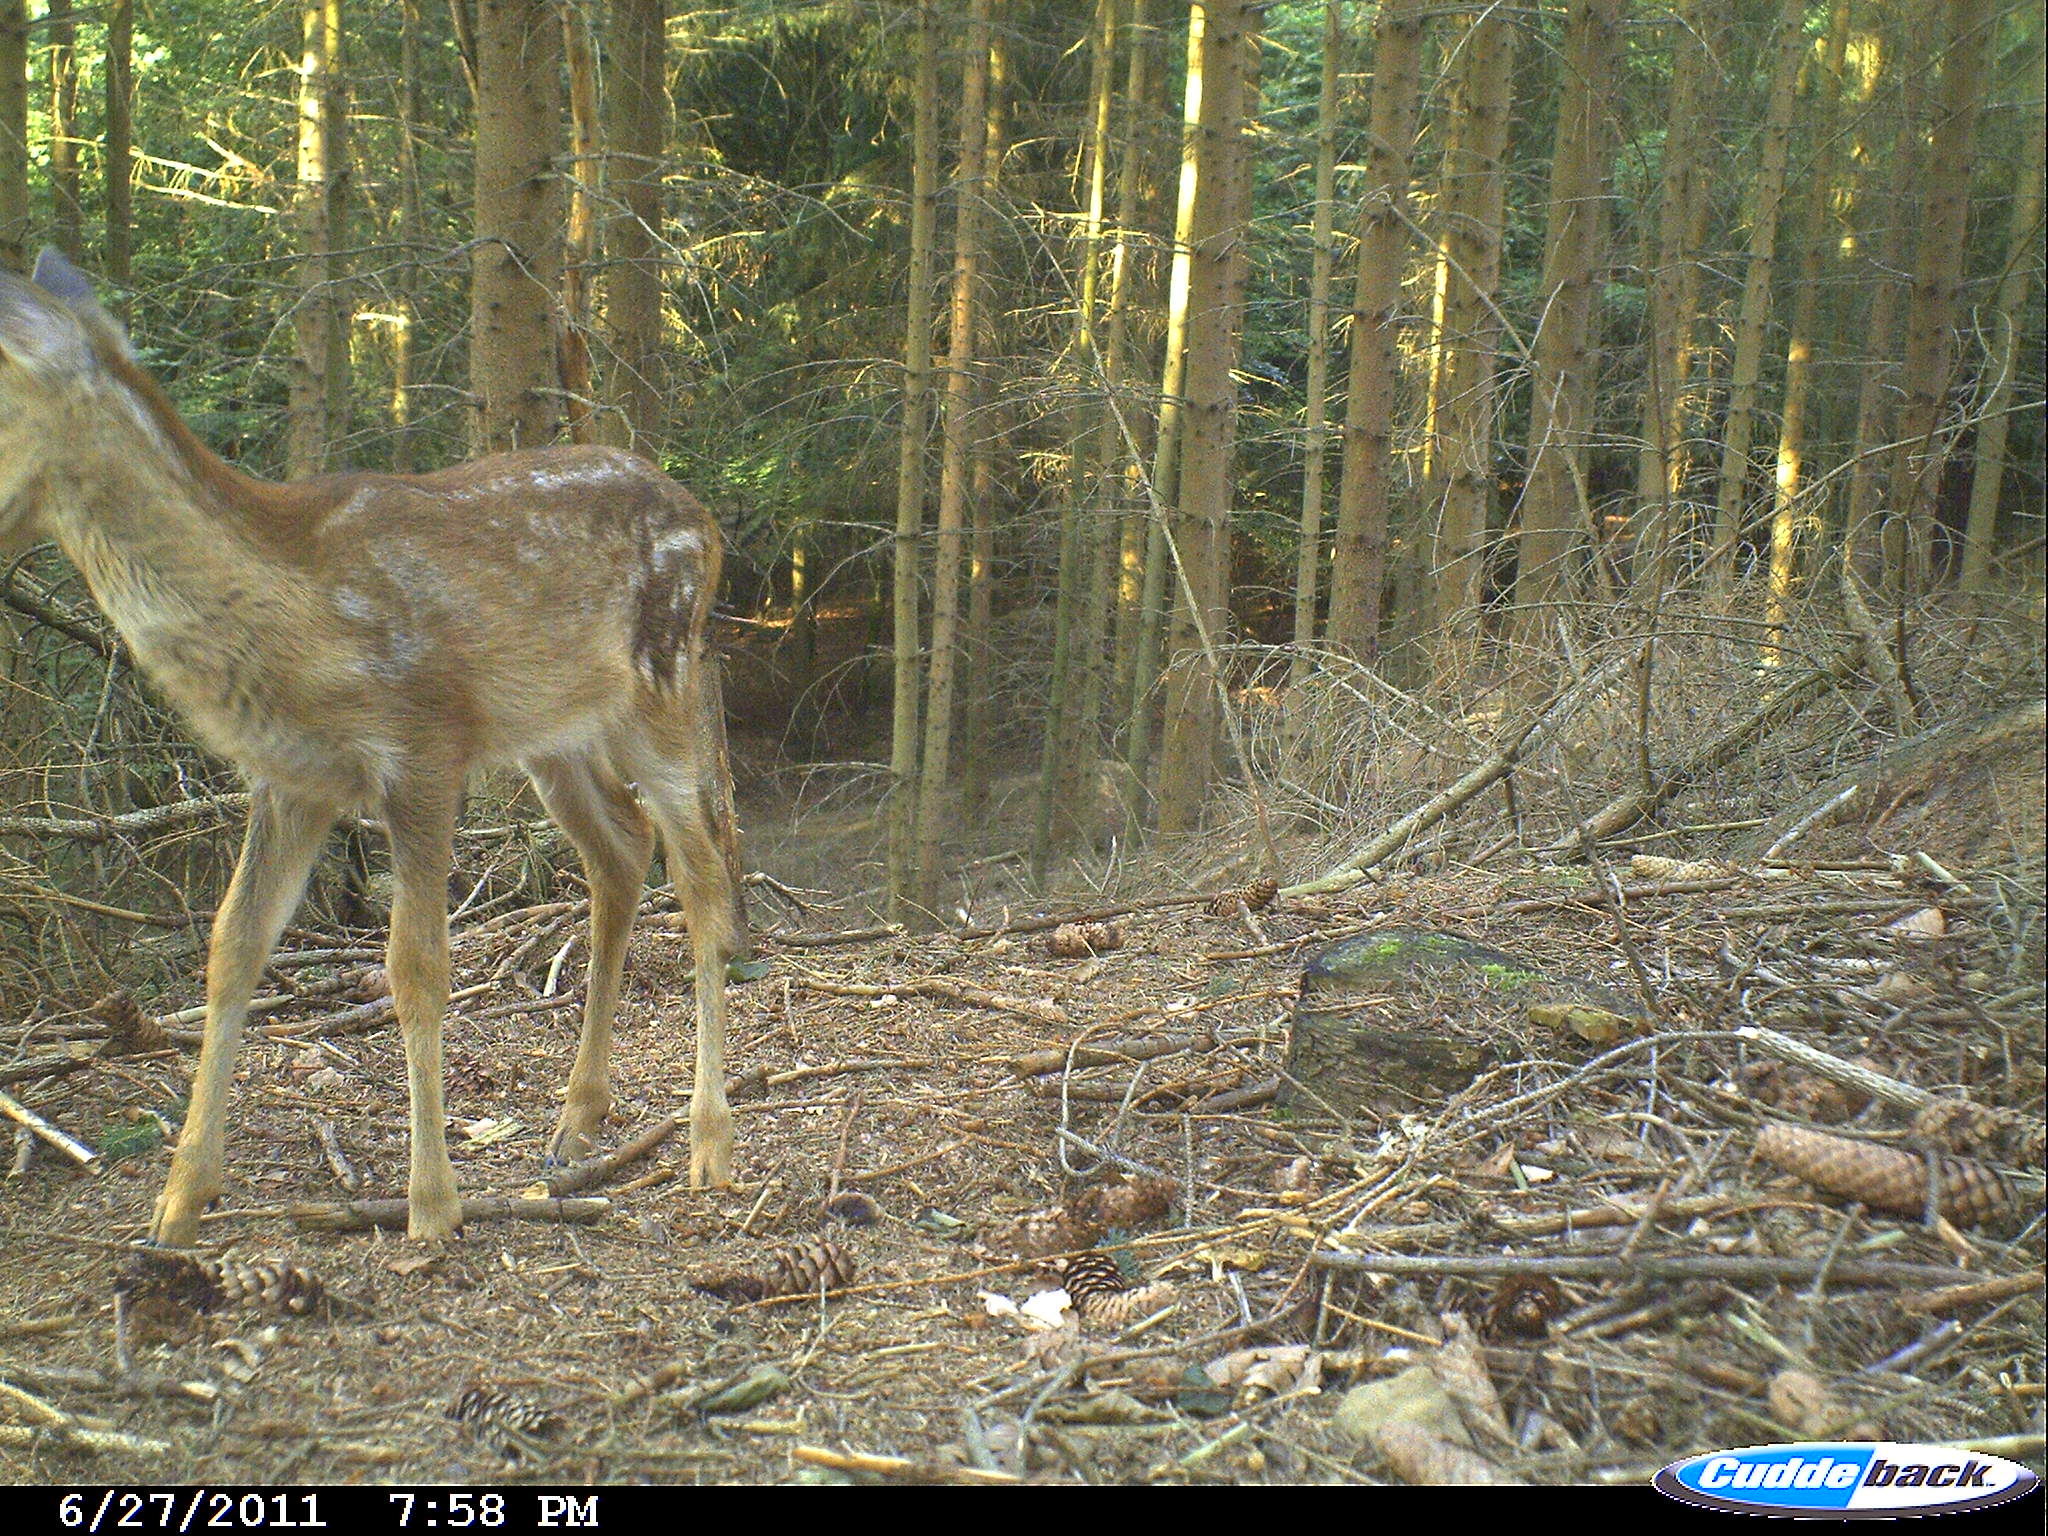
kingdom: Animalia
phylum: Chordata
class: Mammalia
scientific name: Mammalia
